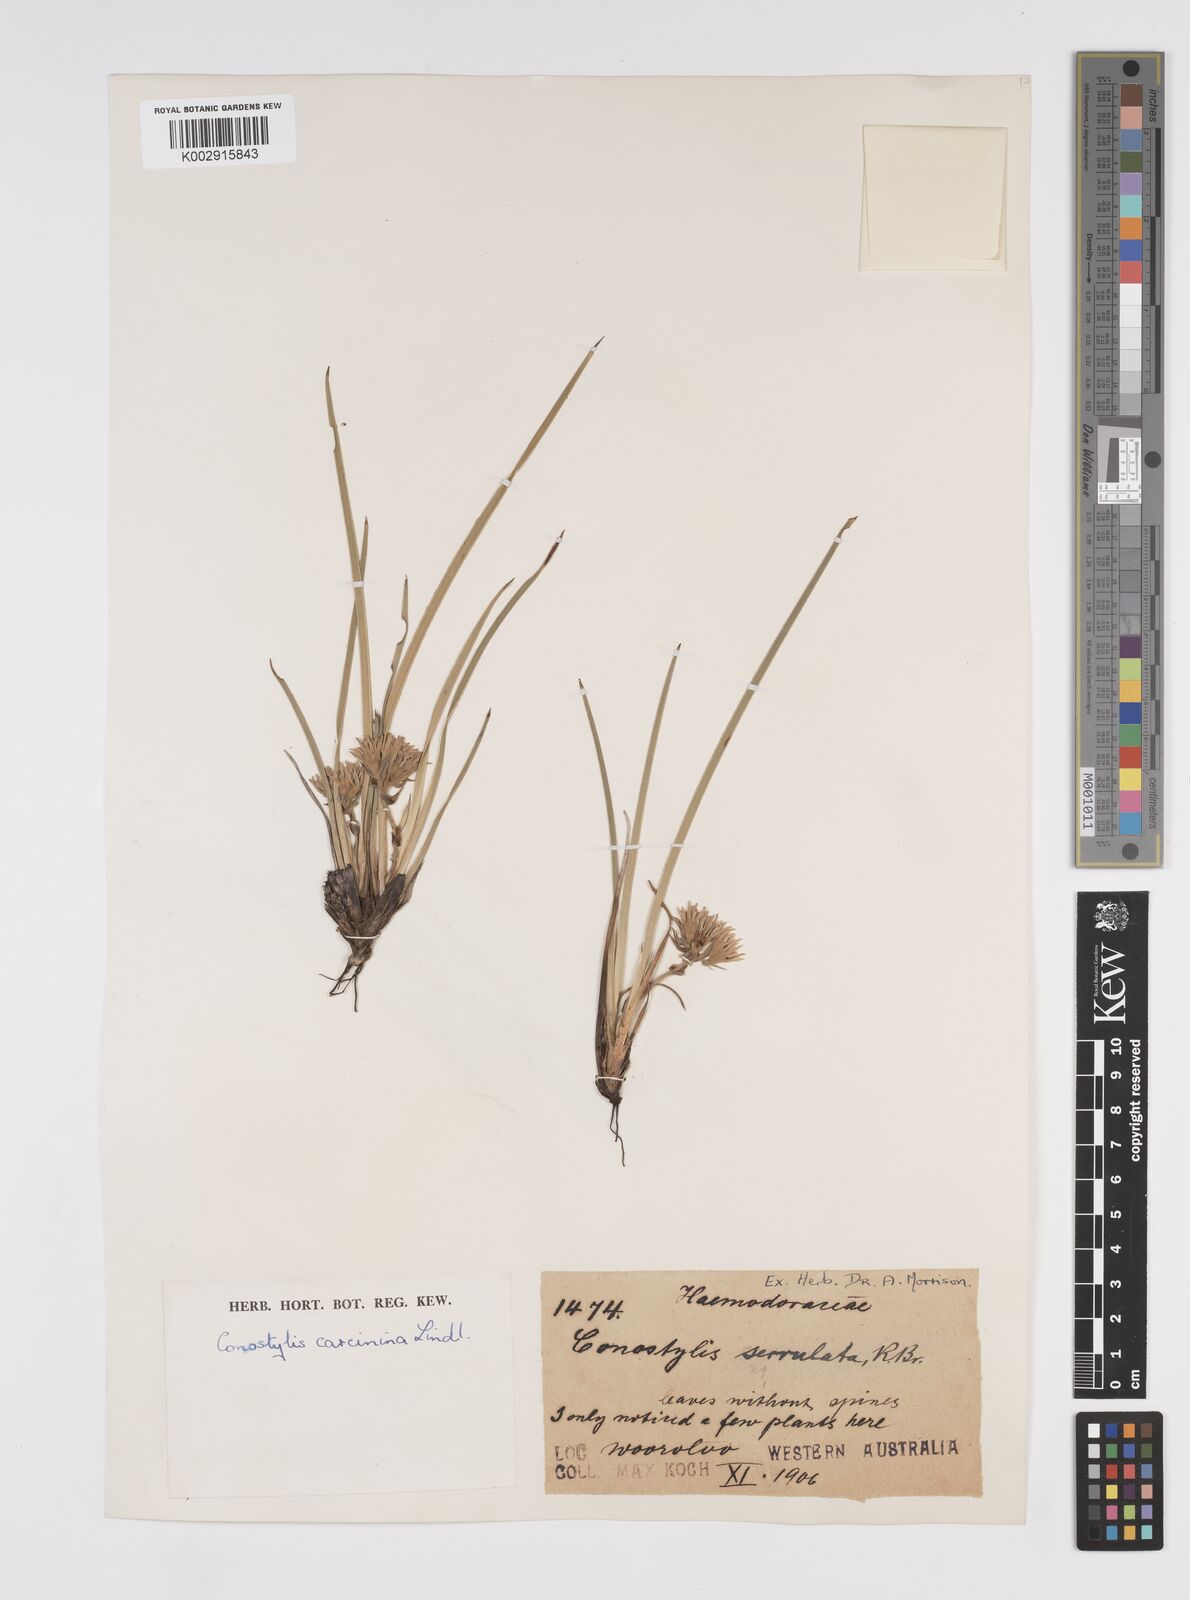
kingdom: Plantae
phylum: Tracheophyta
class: Liliopsida
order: Commelinales
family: Haemodoraceae
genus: Conostylis
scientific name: Conostylis caricina
